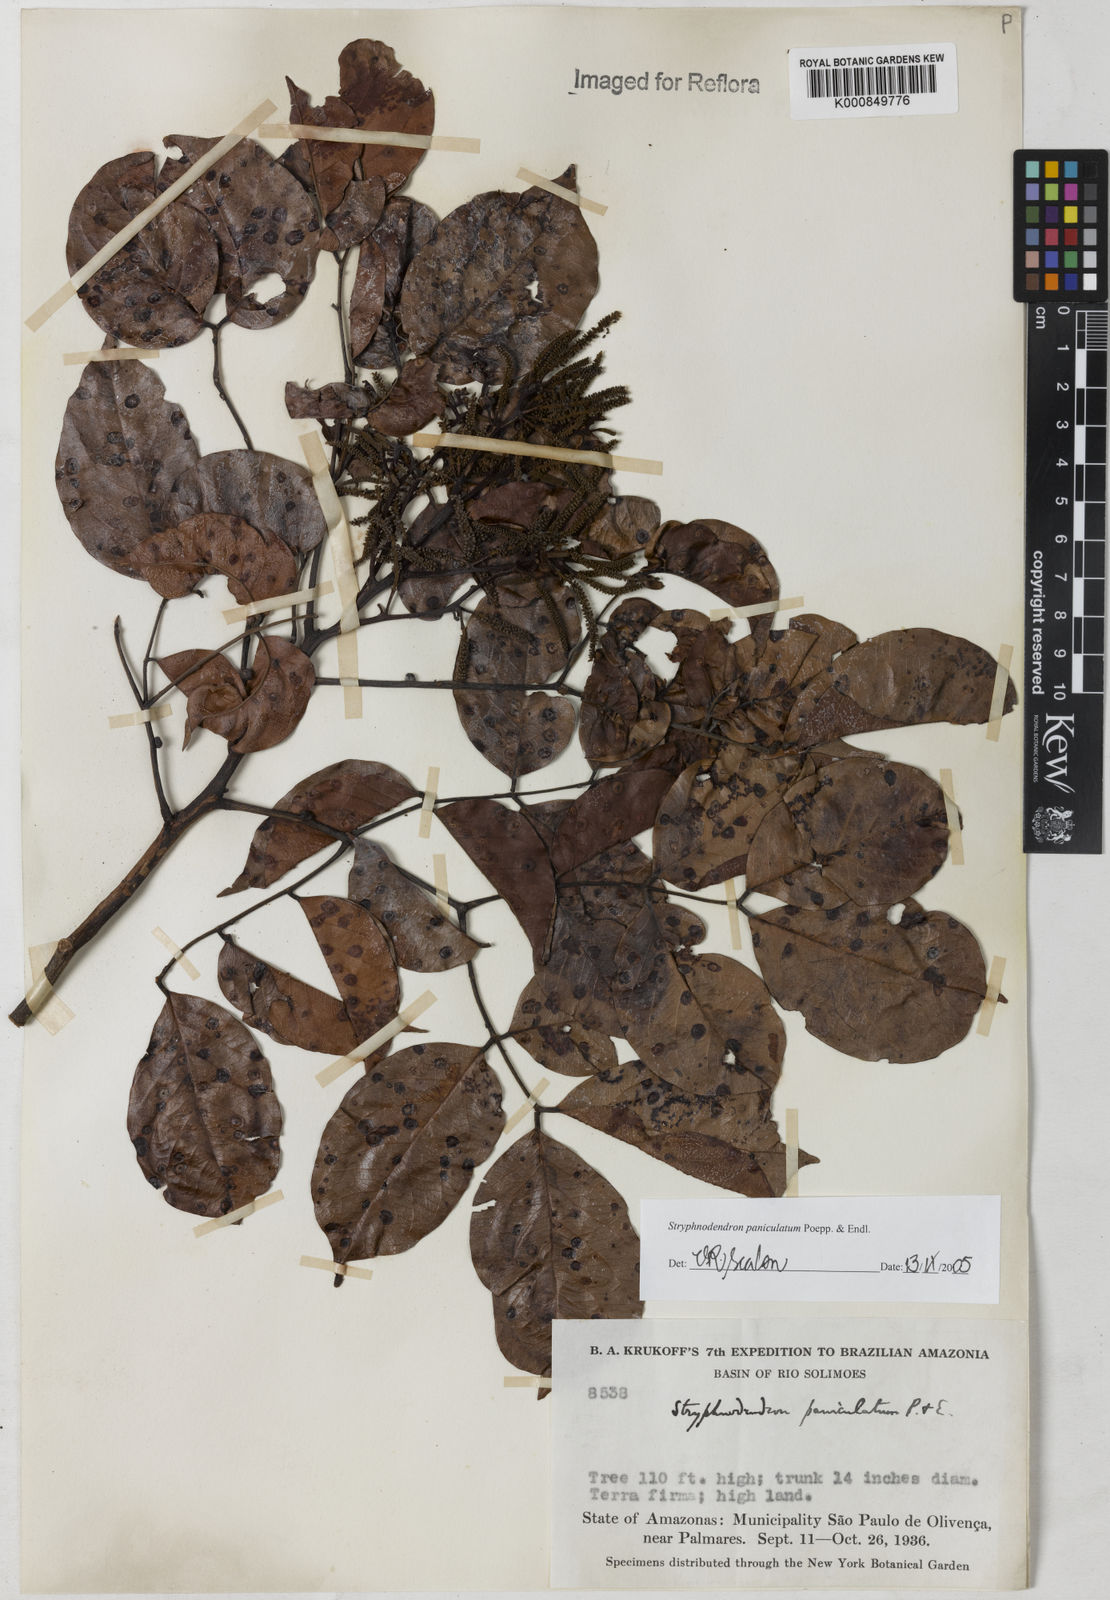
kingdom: Plantae
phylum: Tracheophyta
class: Magnoliopsida
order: Fabales
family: Fabaceae
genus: Stryphnodendron
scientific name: Stryphnodendron paniculatum
